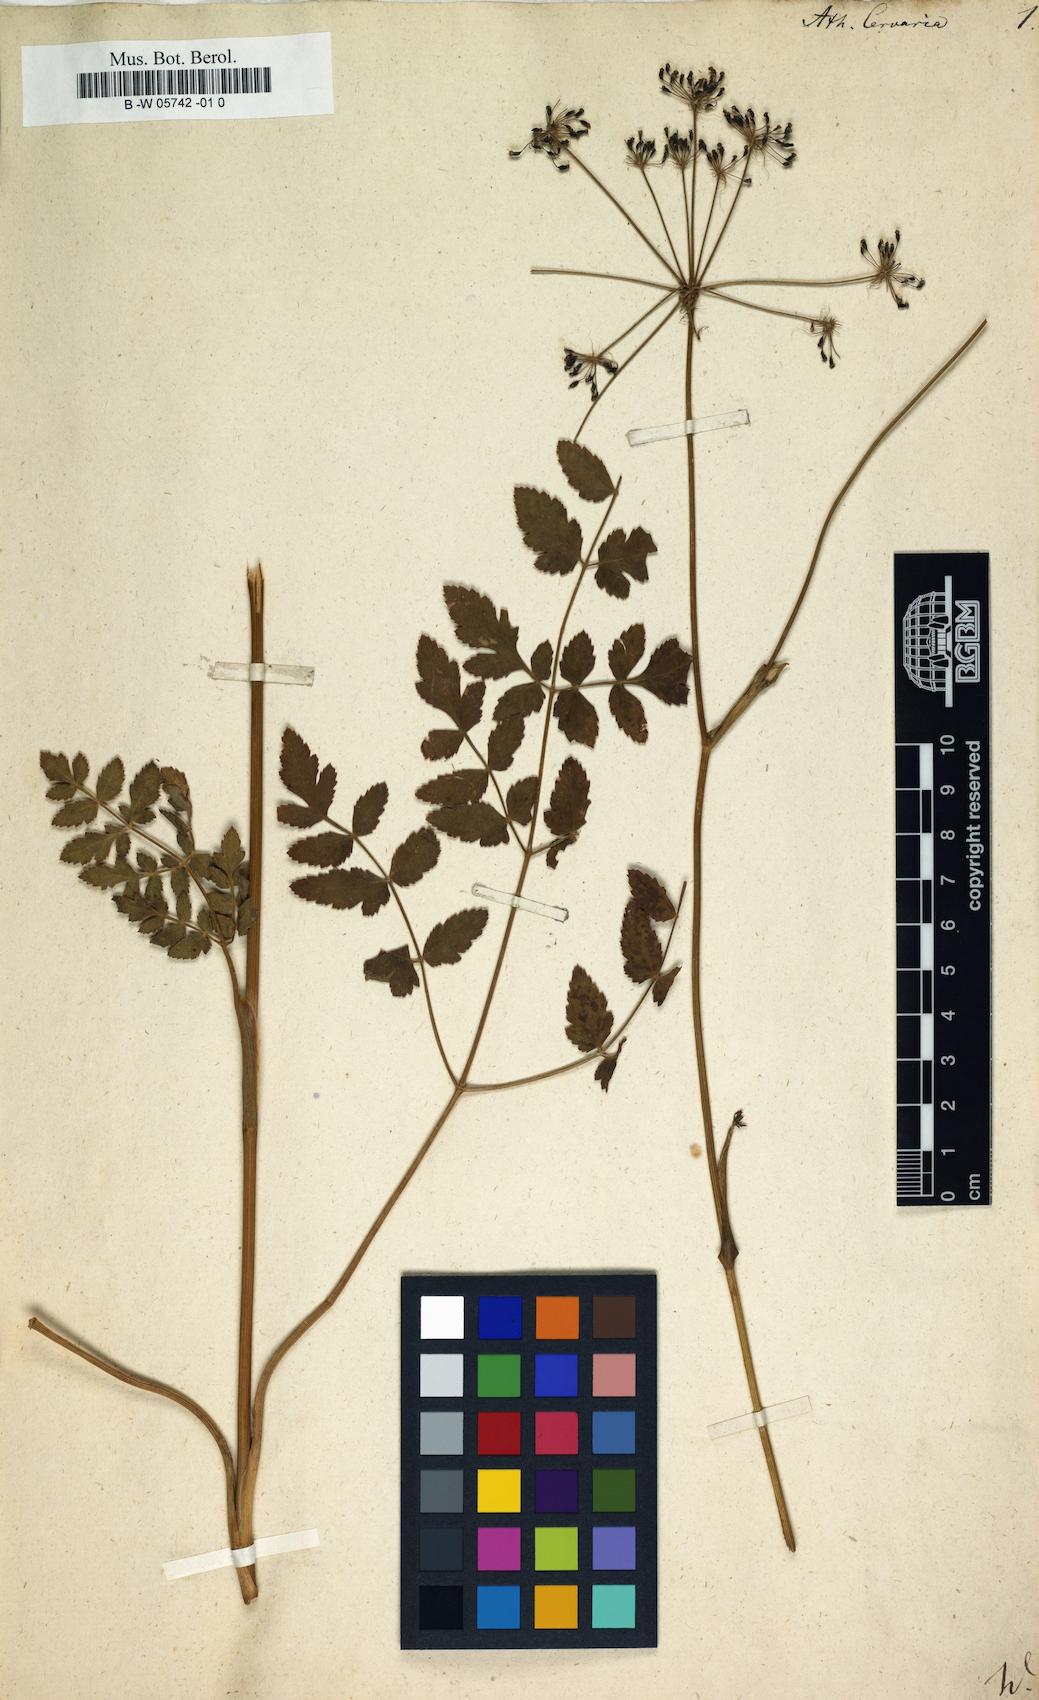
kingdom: Plantae
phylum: Tracheophyta
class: Magnoliopsida
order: Apiales
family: Apiaceae
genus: Cervaria
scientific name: Cervaria rivini
